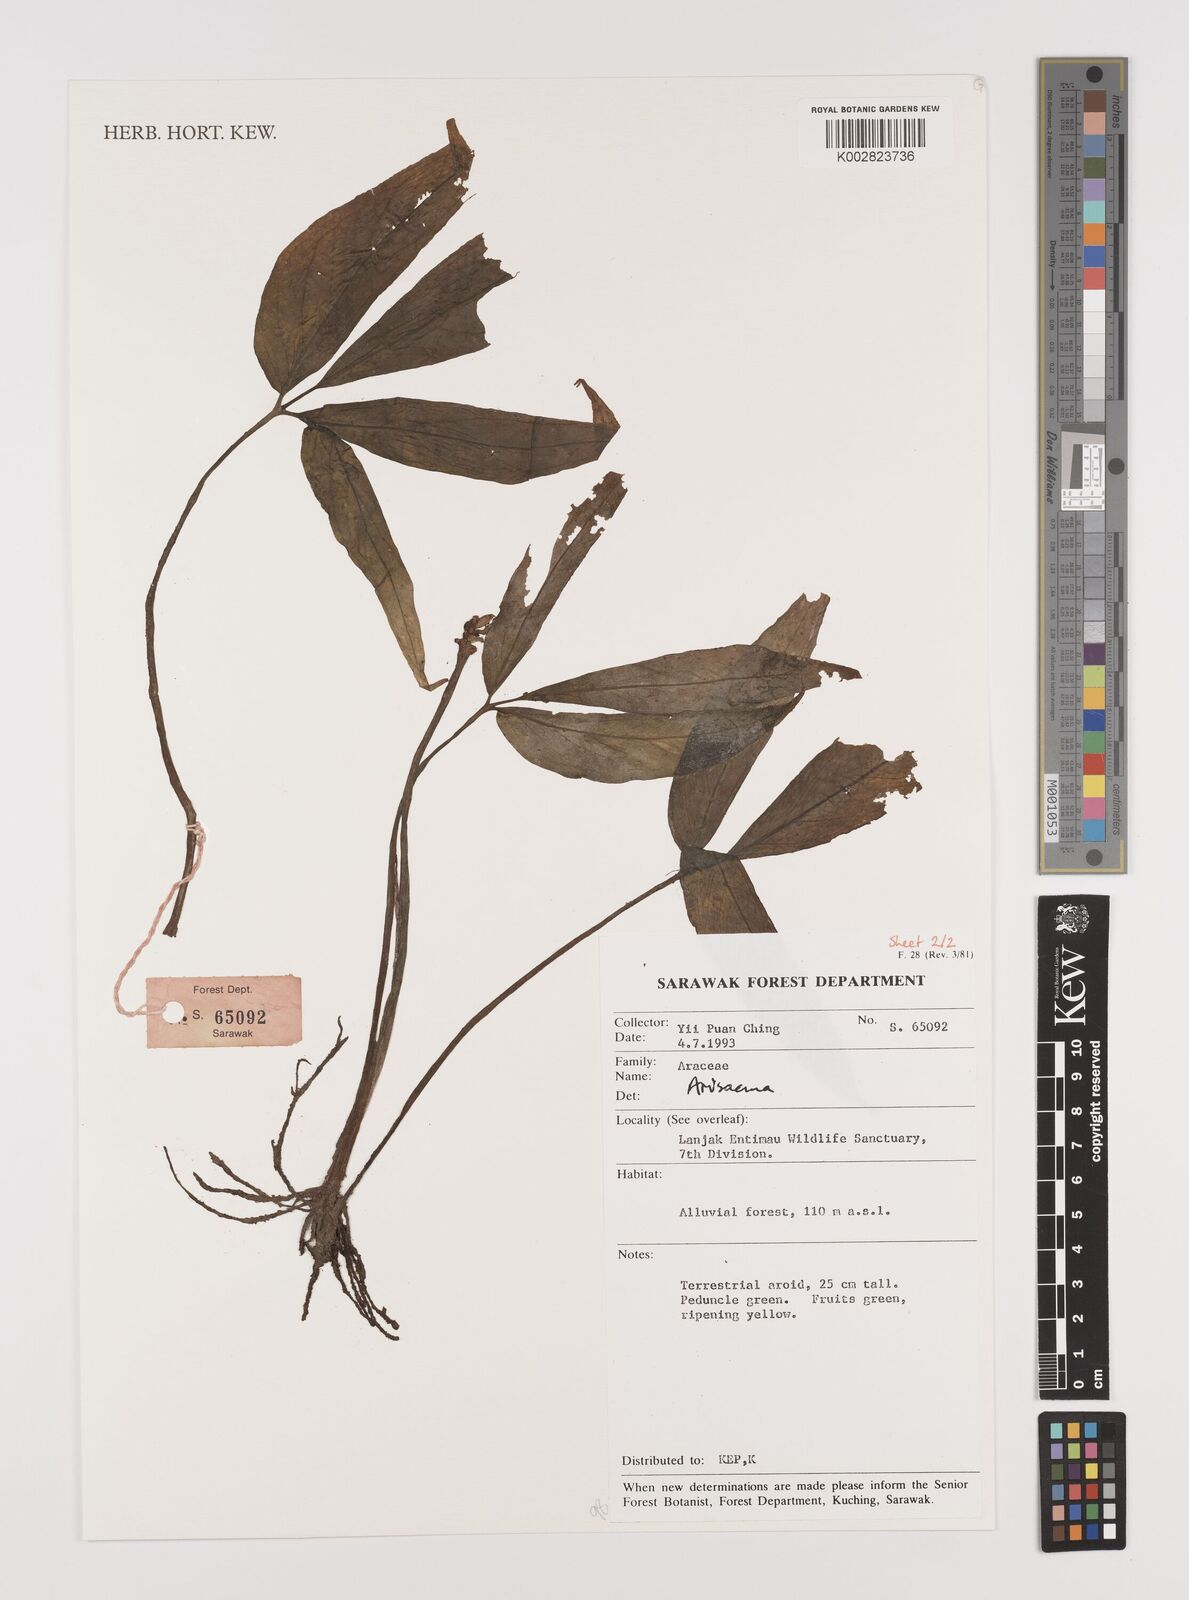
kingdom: Plantae
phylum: Tracheophyta
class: Liliopsida
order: Alismatales
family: Araceae
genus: Arisaema
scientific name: Arisaema
